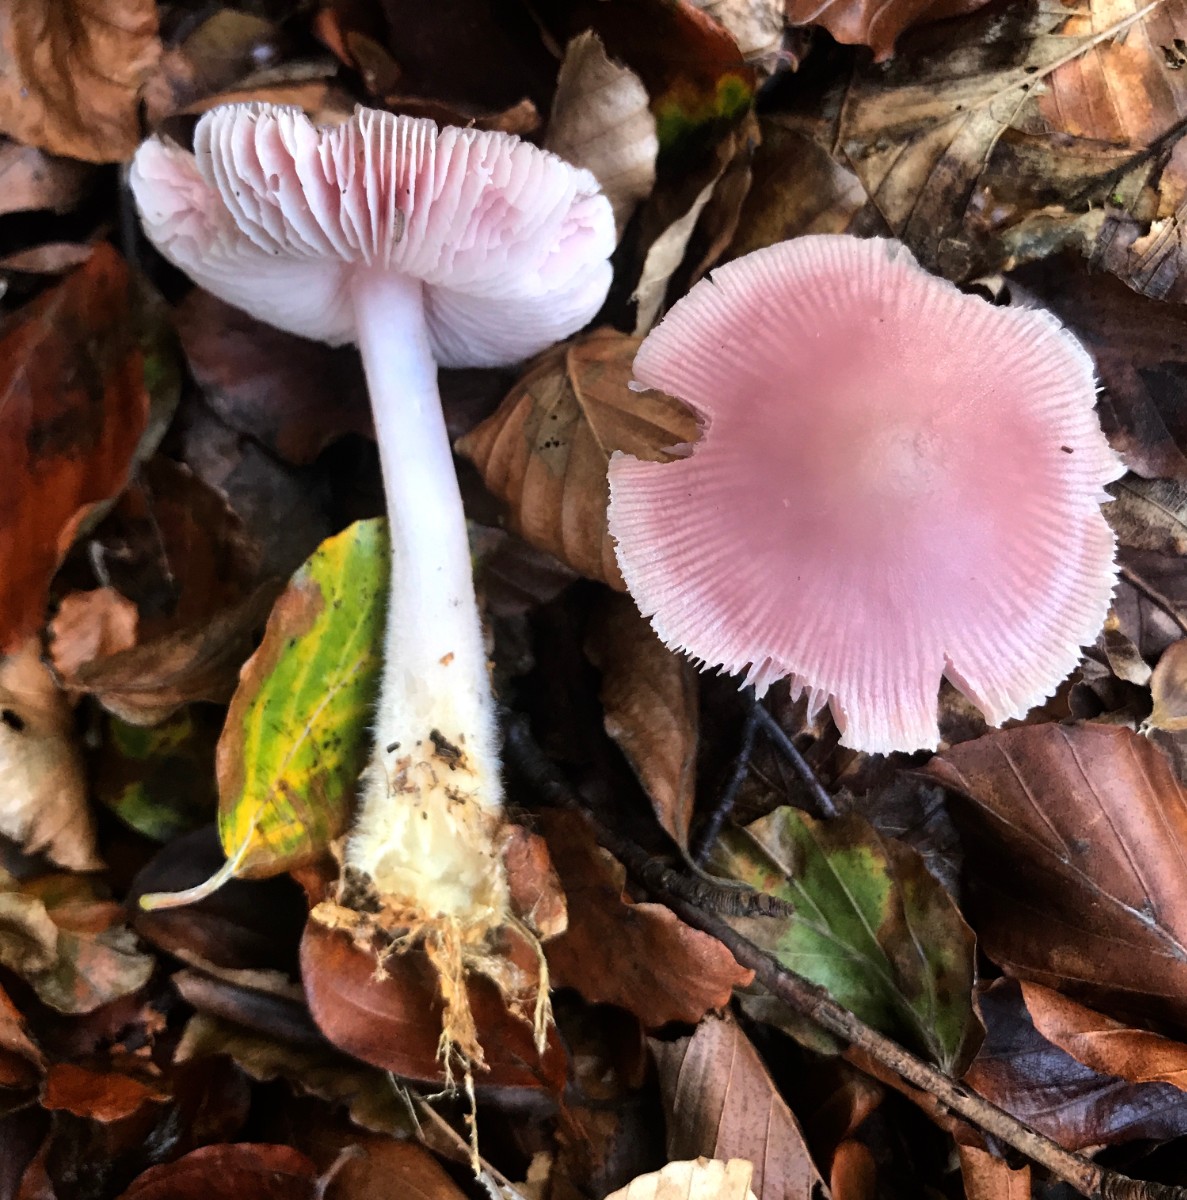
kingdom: Fungi
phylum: Basidiomycota
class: Agaricomycetes
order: Agaricales
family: Mycenaceae
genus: Mycena
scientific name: Mycena rosea
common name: rosa huesvamp
